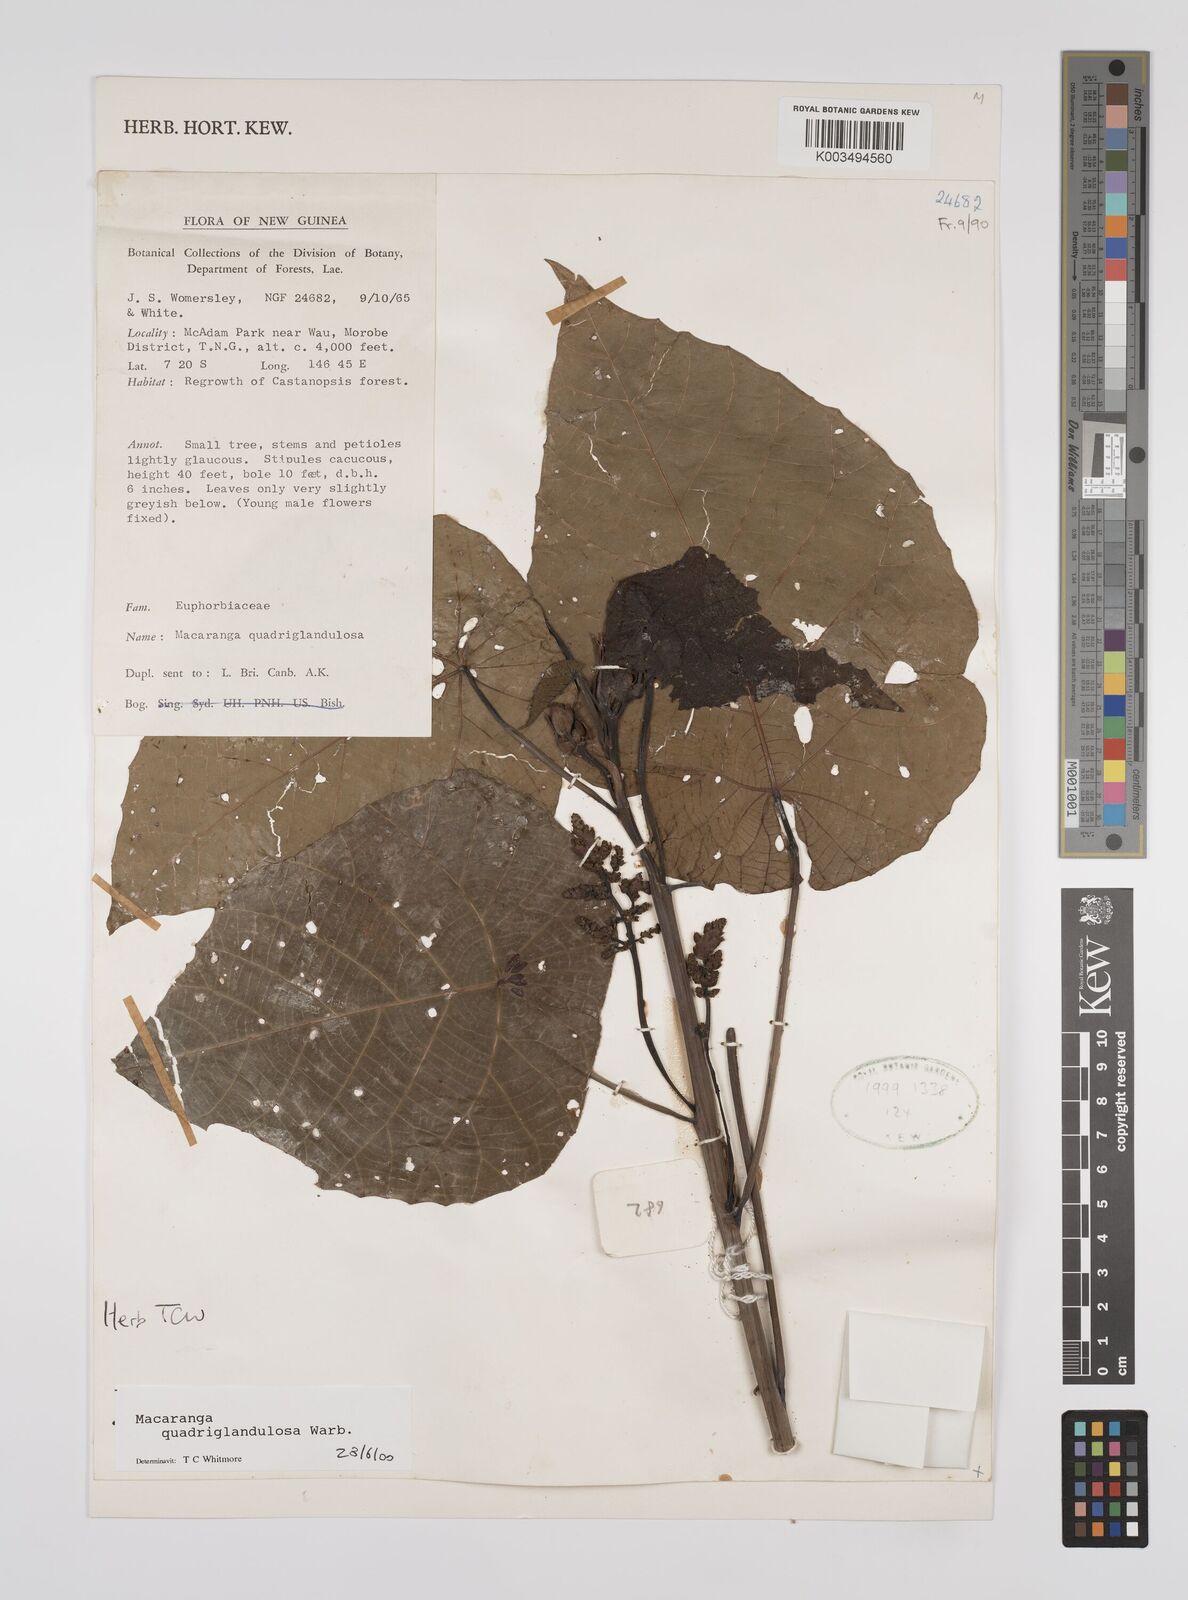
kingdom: Plantae
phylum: Tracheophyta
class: Magnoliopsida
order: Malpighiales
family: Euphorbiaceae
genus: Macaranga
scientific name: Macaranga quadriglandulosa
